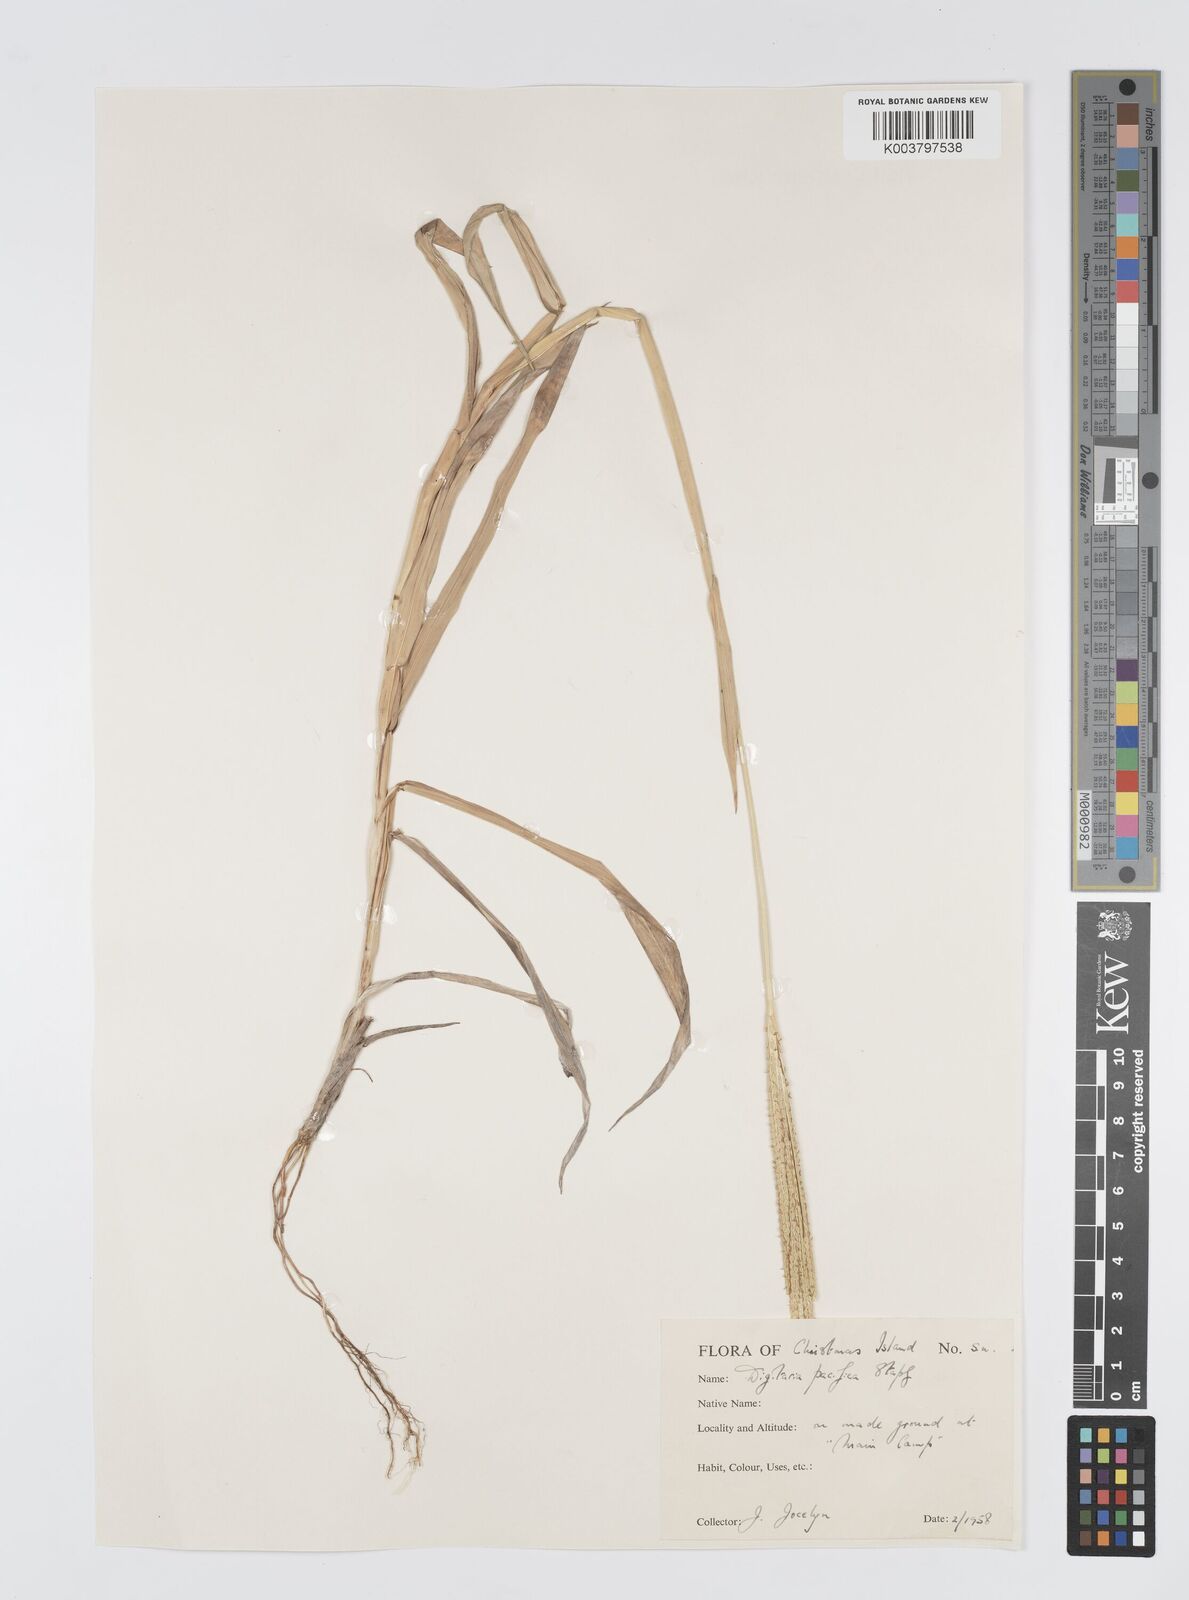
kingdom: Plantae
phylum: Tracheophyta
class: Liliopsida
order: Poales
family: Poaceae
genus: Digitaria
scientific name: Digitaria stenotaphrodes
